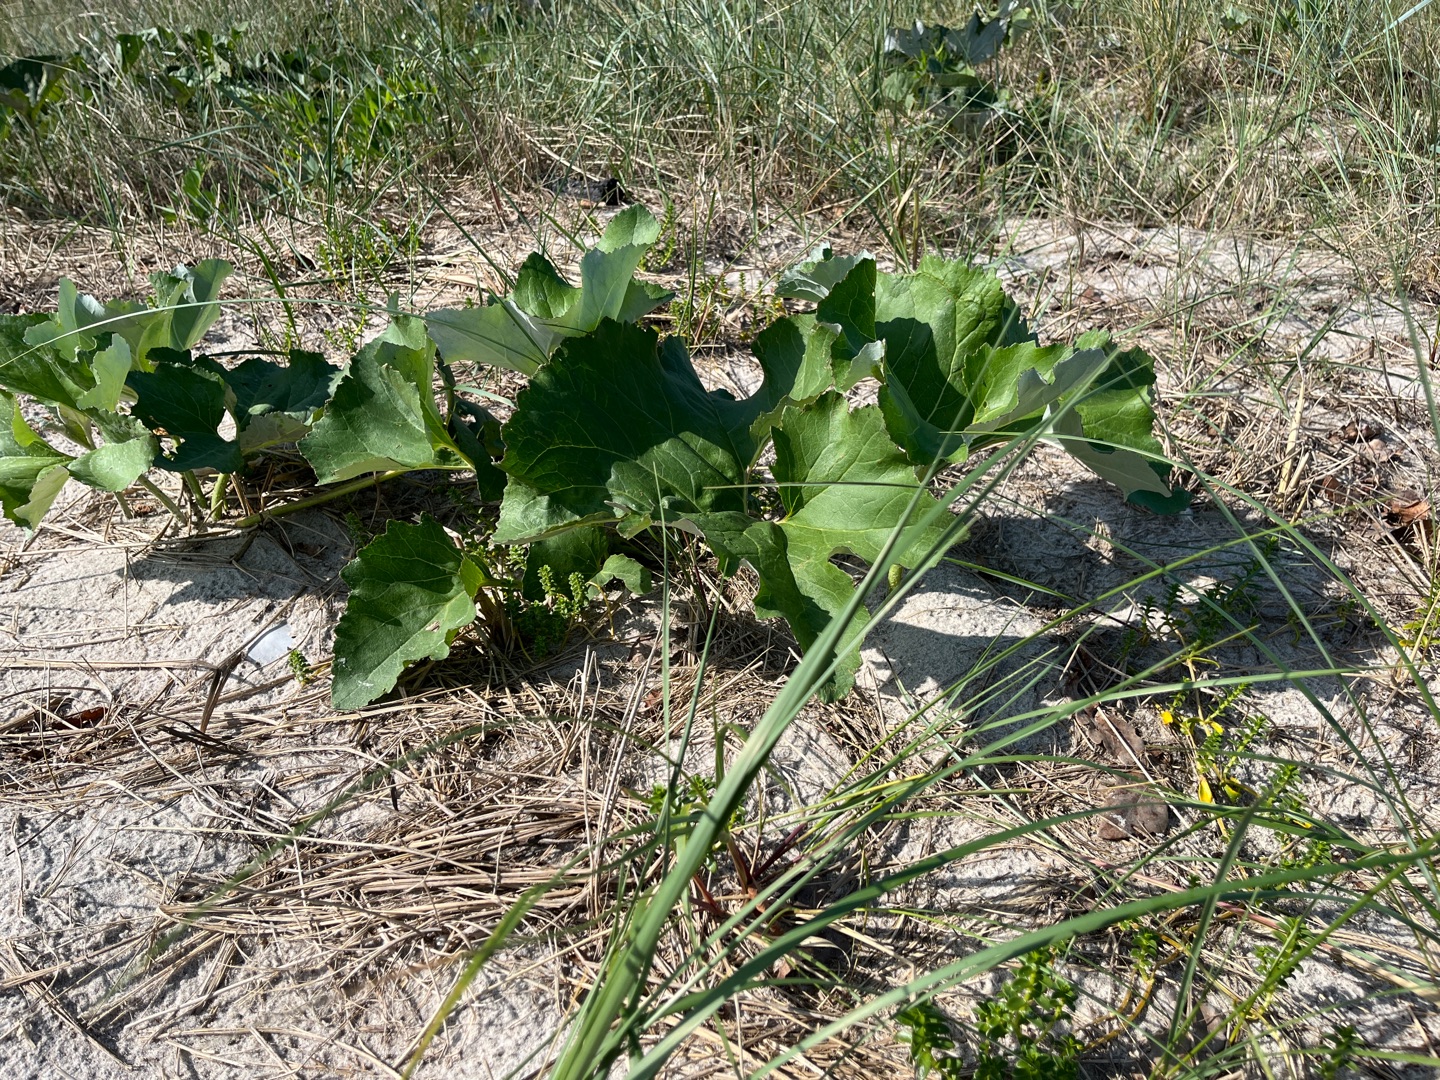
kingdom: Plantae
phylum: Tracheophyta
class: Magnoliopsida
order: Asterales
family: Asteraceae
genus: Petasites
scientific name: Petasites spurius
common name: Filtet hestehov
